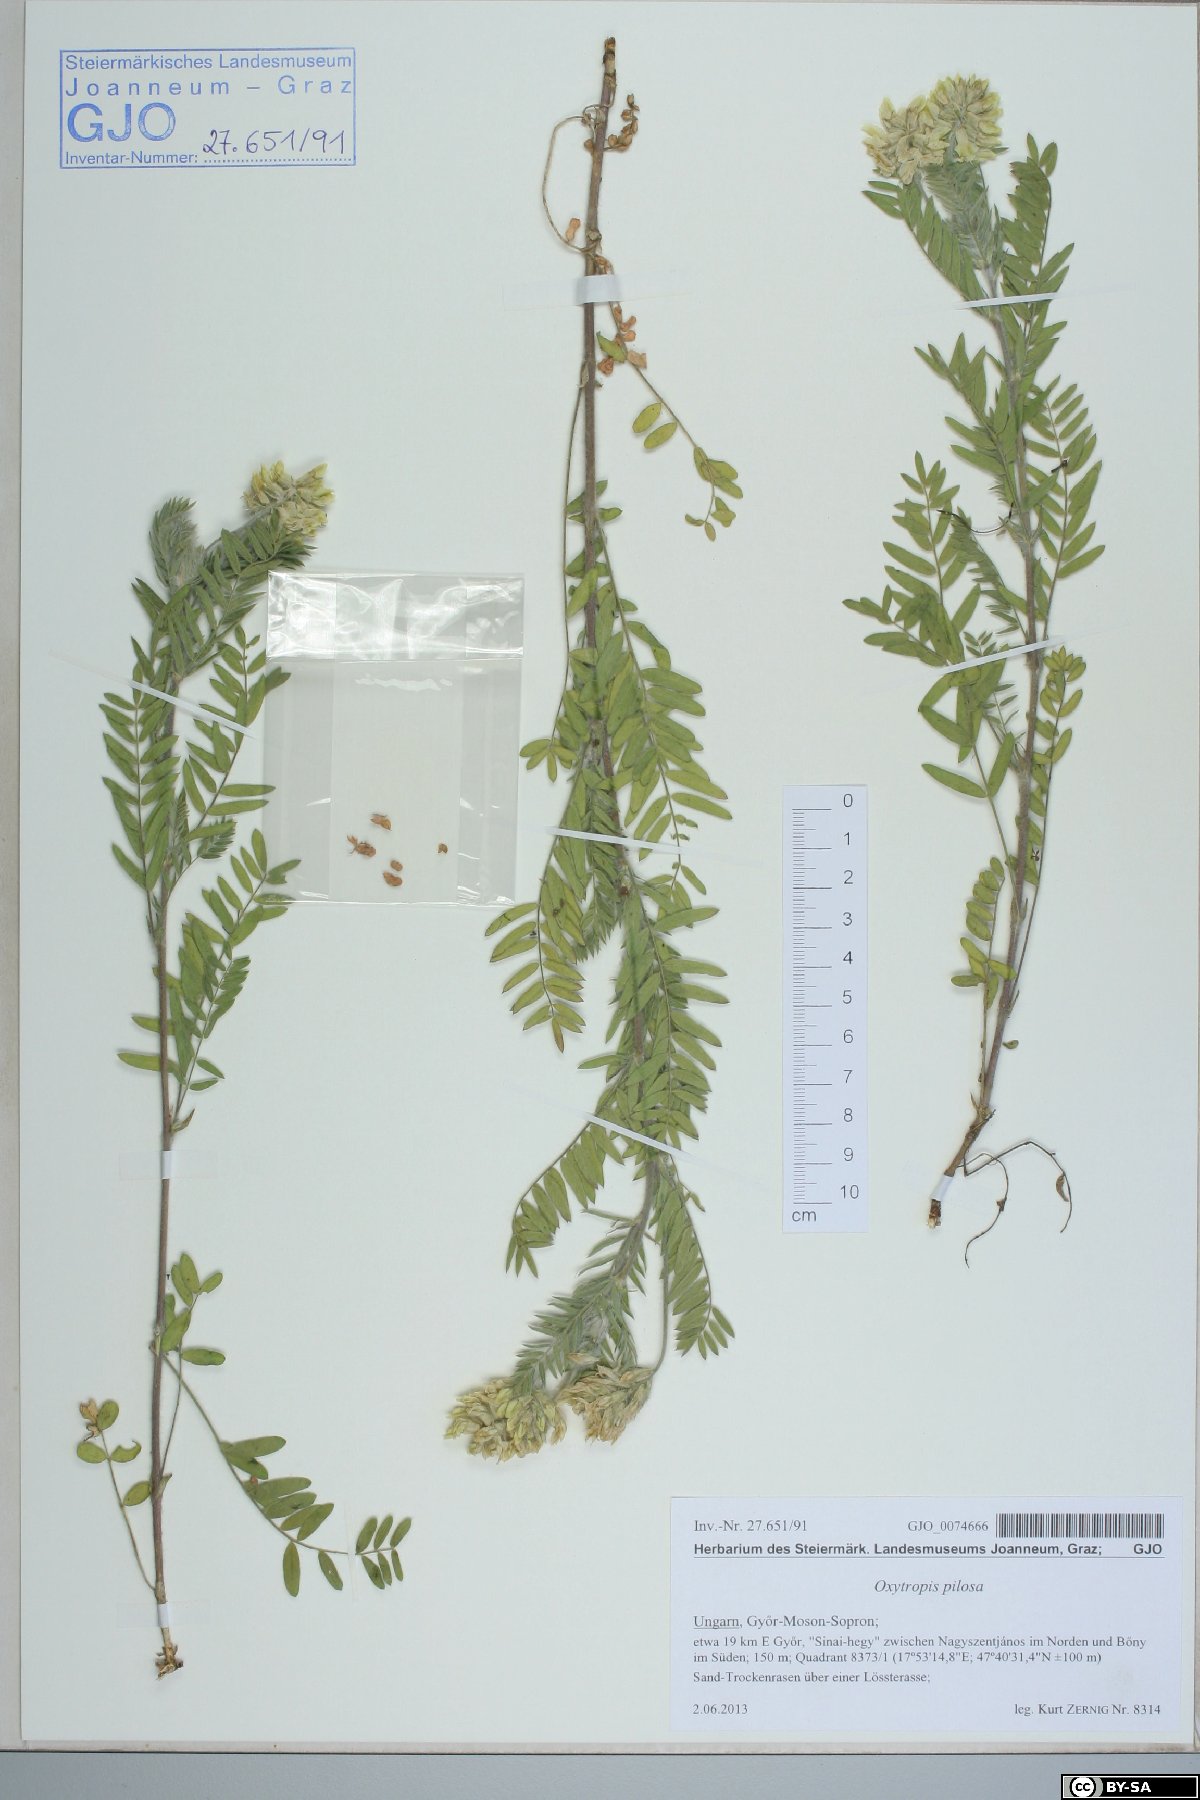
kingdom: Plantae
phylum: Tracheophyta
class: Magnoliopsida
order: Fabales
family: Fabaceae
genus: Oxytropis
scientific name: Oxytropis pilosa
